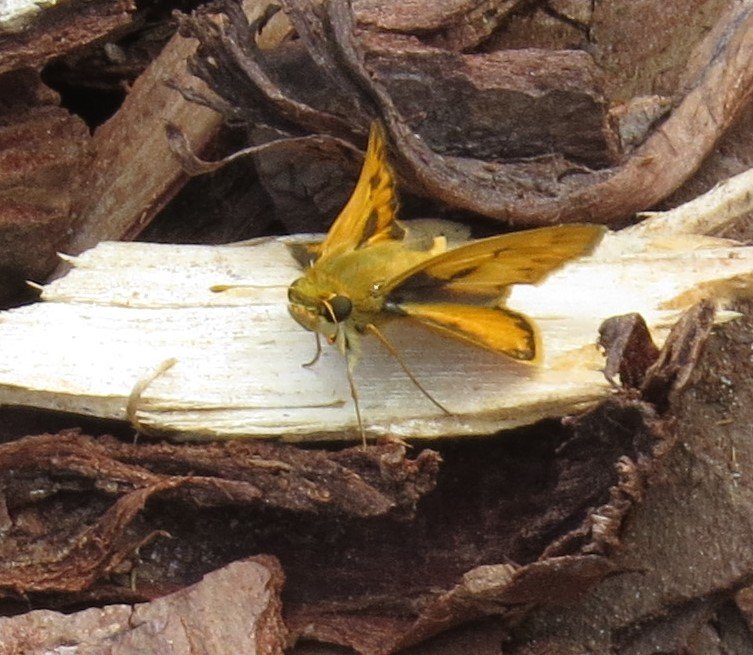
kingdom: Animalia
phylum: Arthropoda
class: Insecta
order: Lepidoptera
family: Hesperiidae
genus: Hylephila
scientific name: Hylephila phyleus
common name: Fiery Skipper
